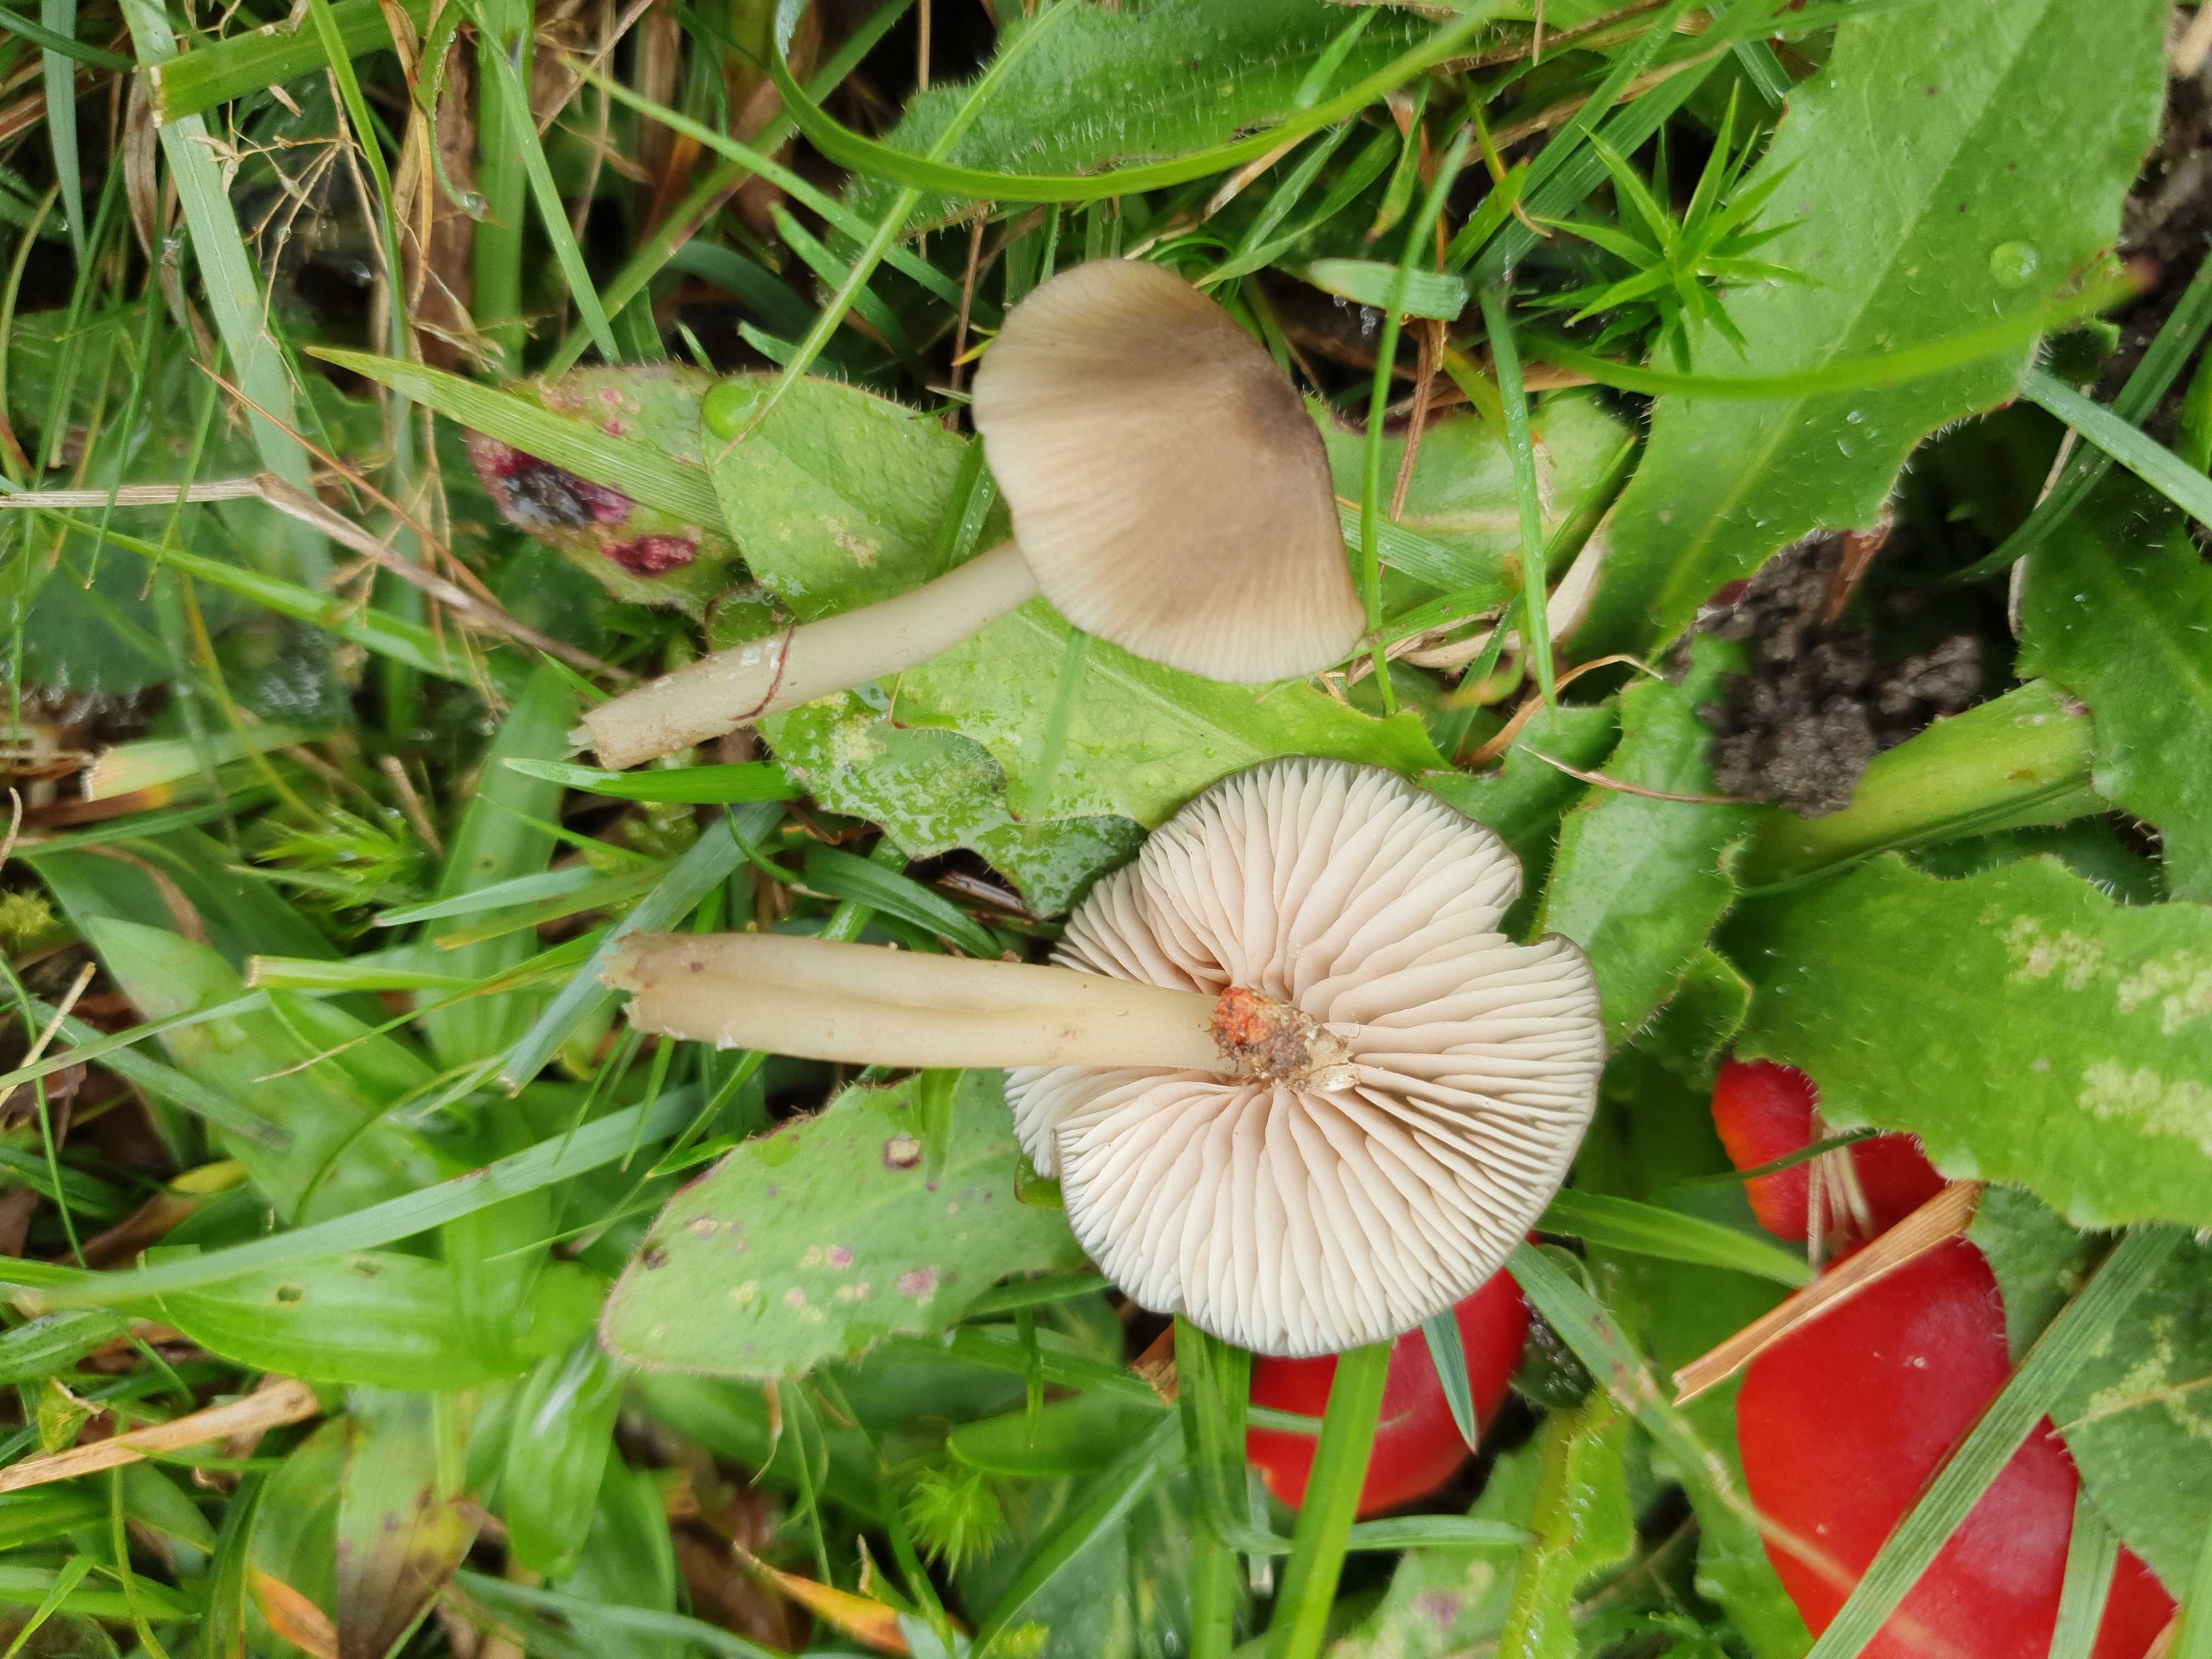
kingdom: Fungi
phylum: Basidiomycota
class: Agaricomycetes
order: Agaricales
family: Entolomataceae
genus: Entoloma
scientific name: Entoloma exile
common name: rødplettet rødblad
